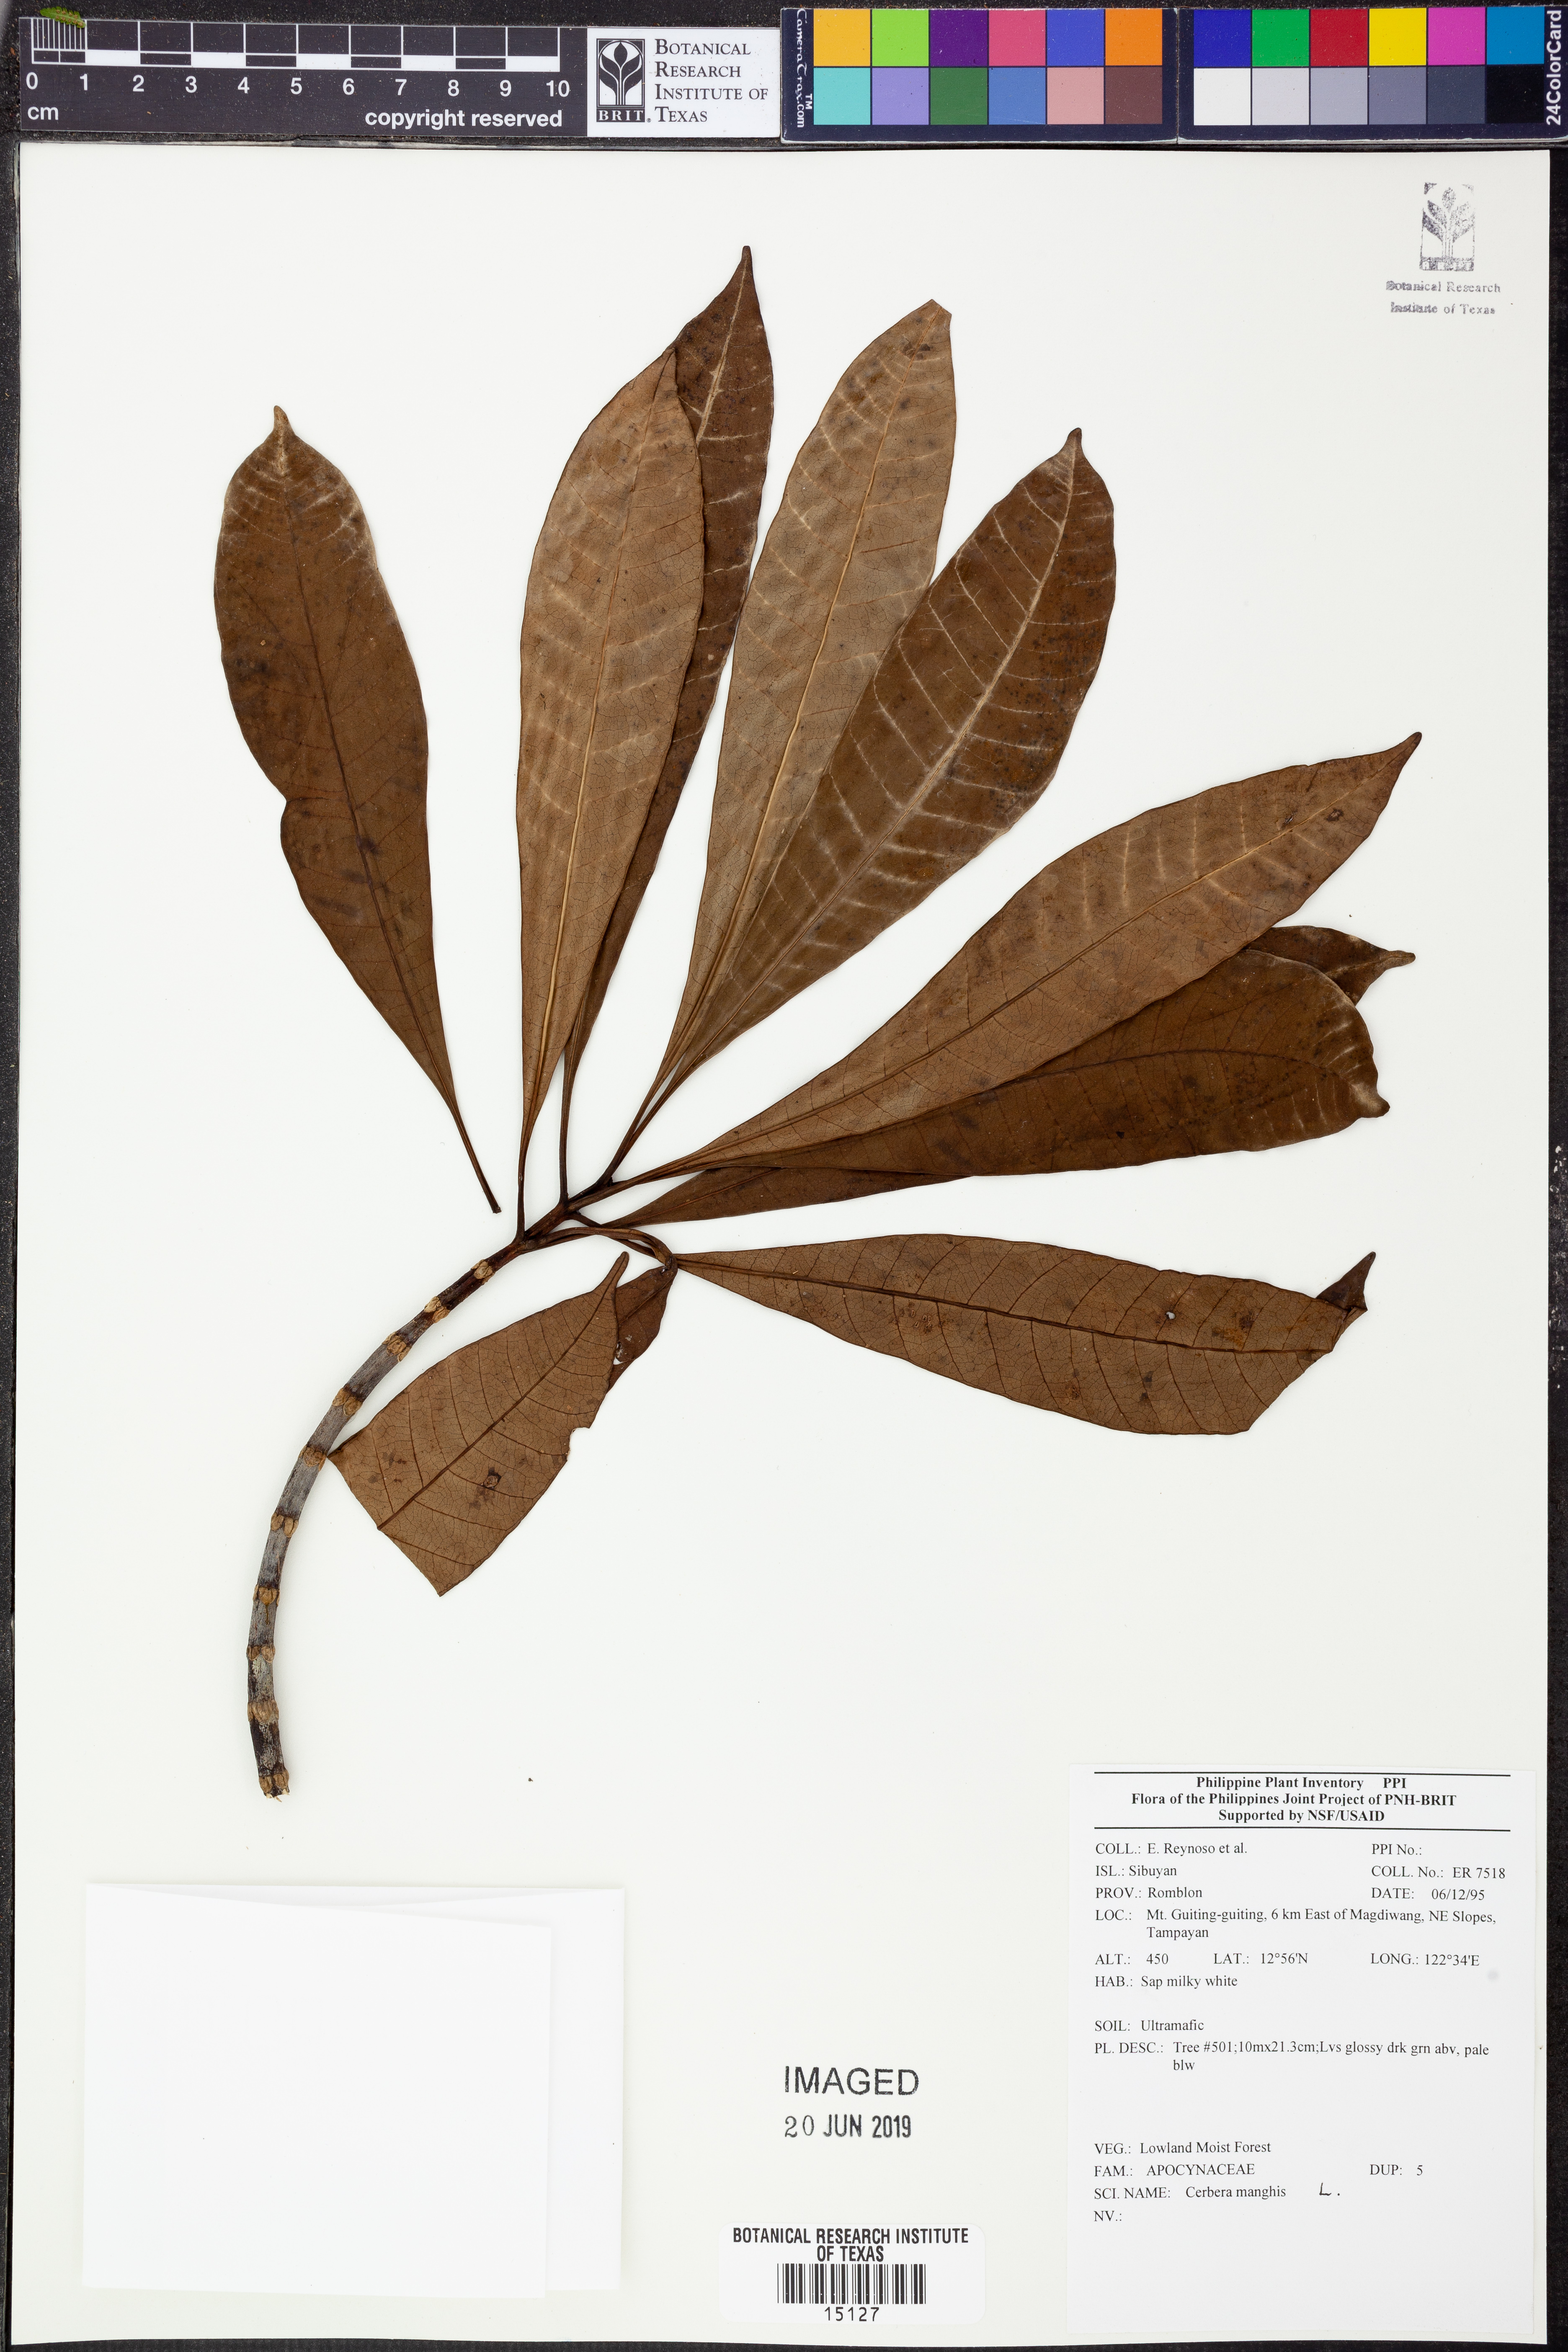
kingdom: Plantae
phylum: Tracheophyta
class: Magnoliopsida
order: Gentianales
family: Apocynaceae
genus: Cerbera
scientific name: Cerbera manghas
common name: Reva
